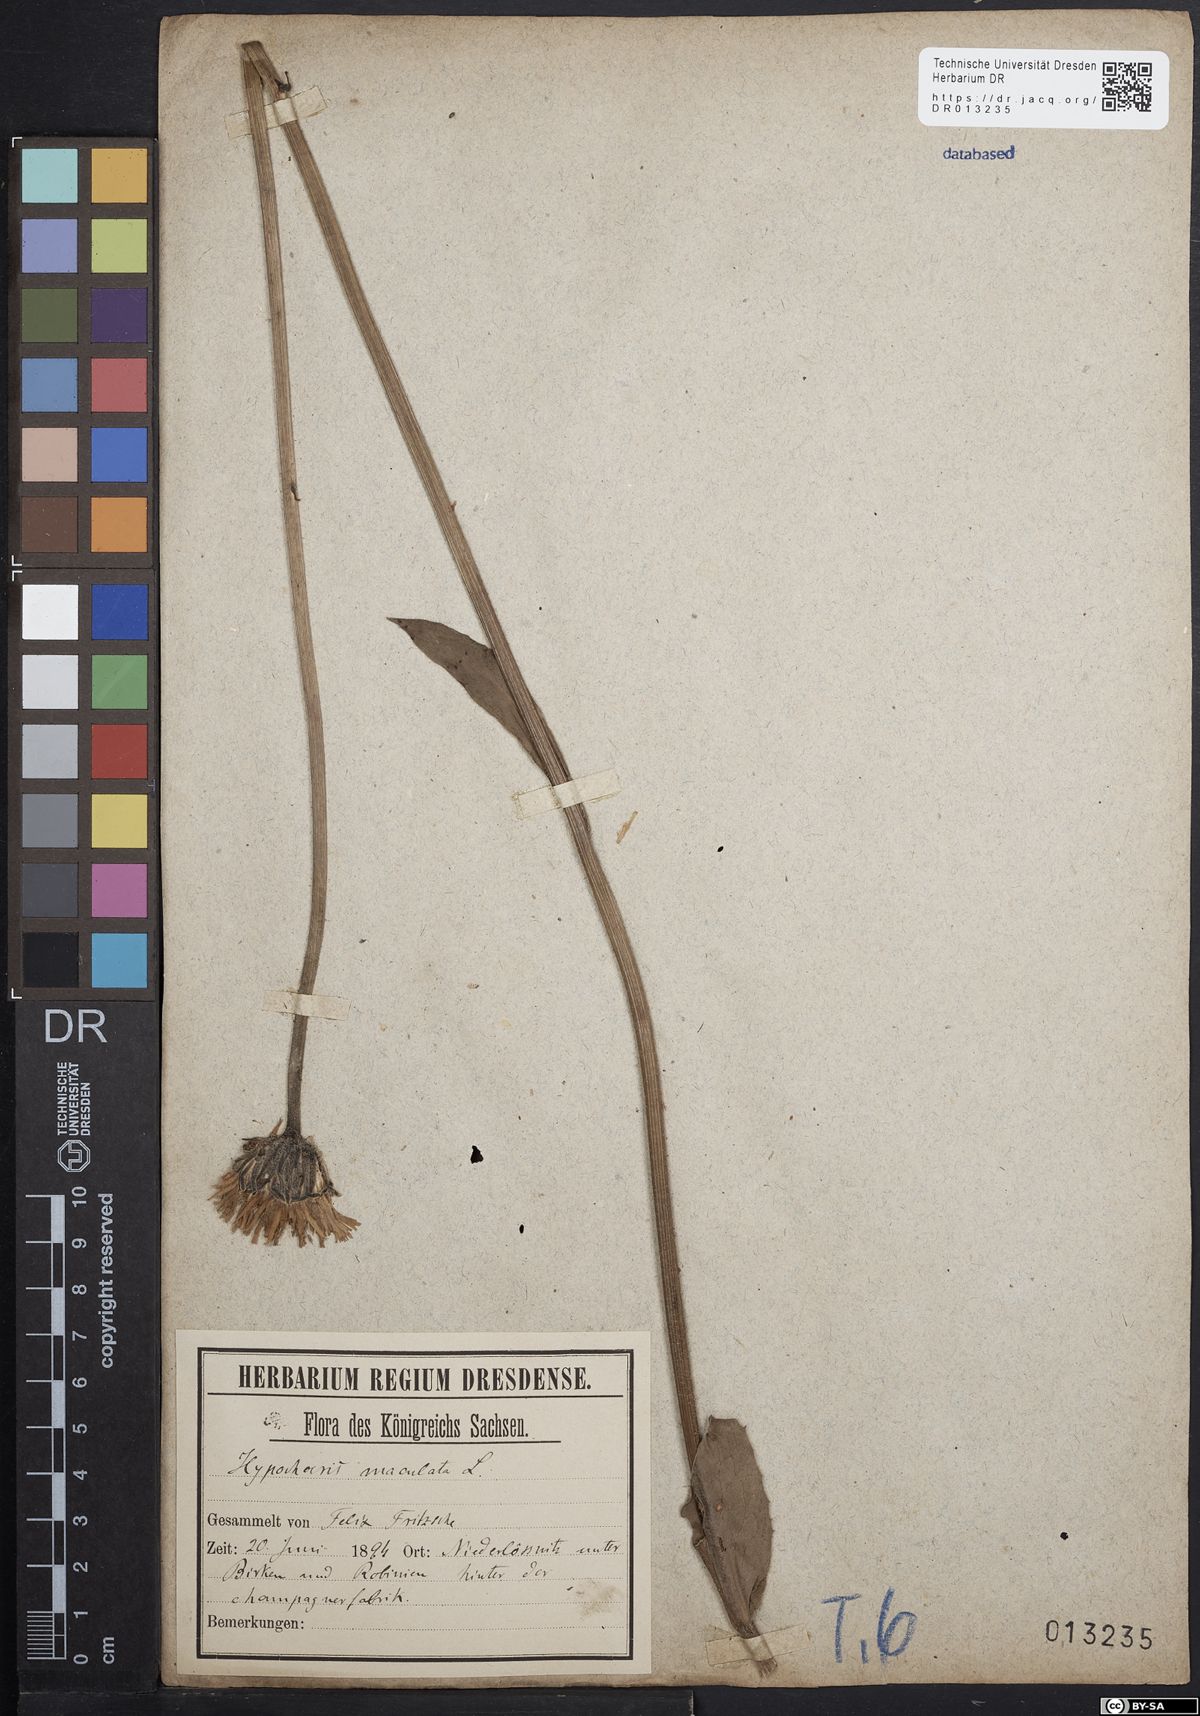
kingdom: Plantae
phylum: Tracheophyta
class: Magnoliopsida
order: Asterales
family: Asteraceae
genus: Trommsdorffia
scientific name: Trommsdorffia maculata
